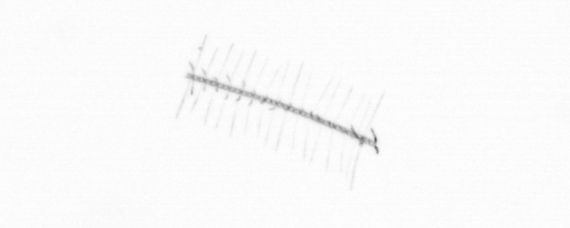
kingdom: Chromista
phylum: Ochrophyta
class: Bacillariophyceae
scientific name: Bacillariophyceae
